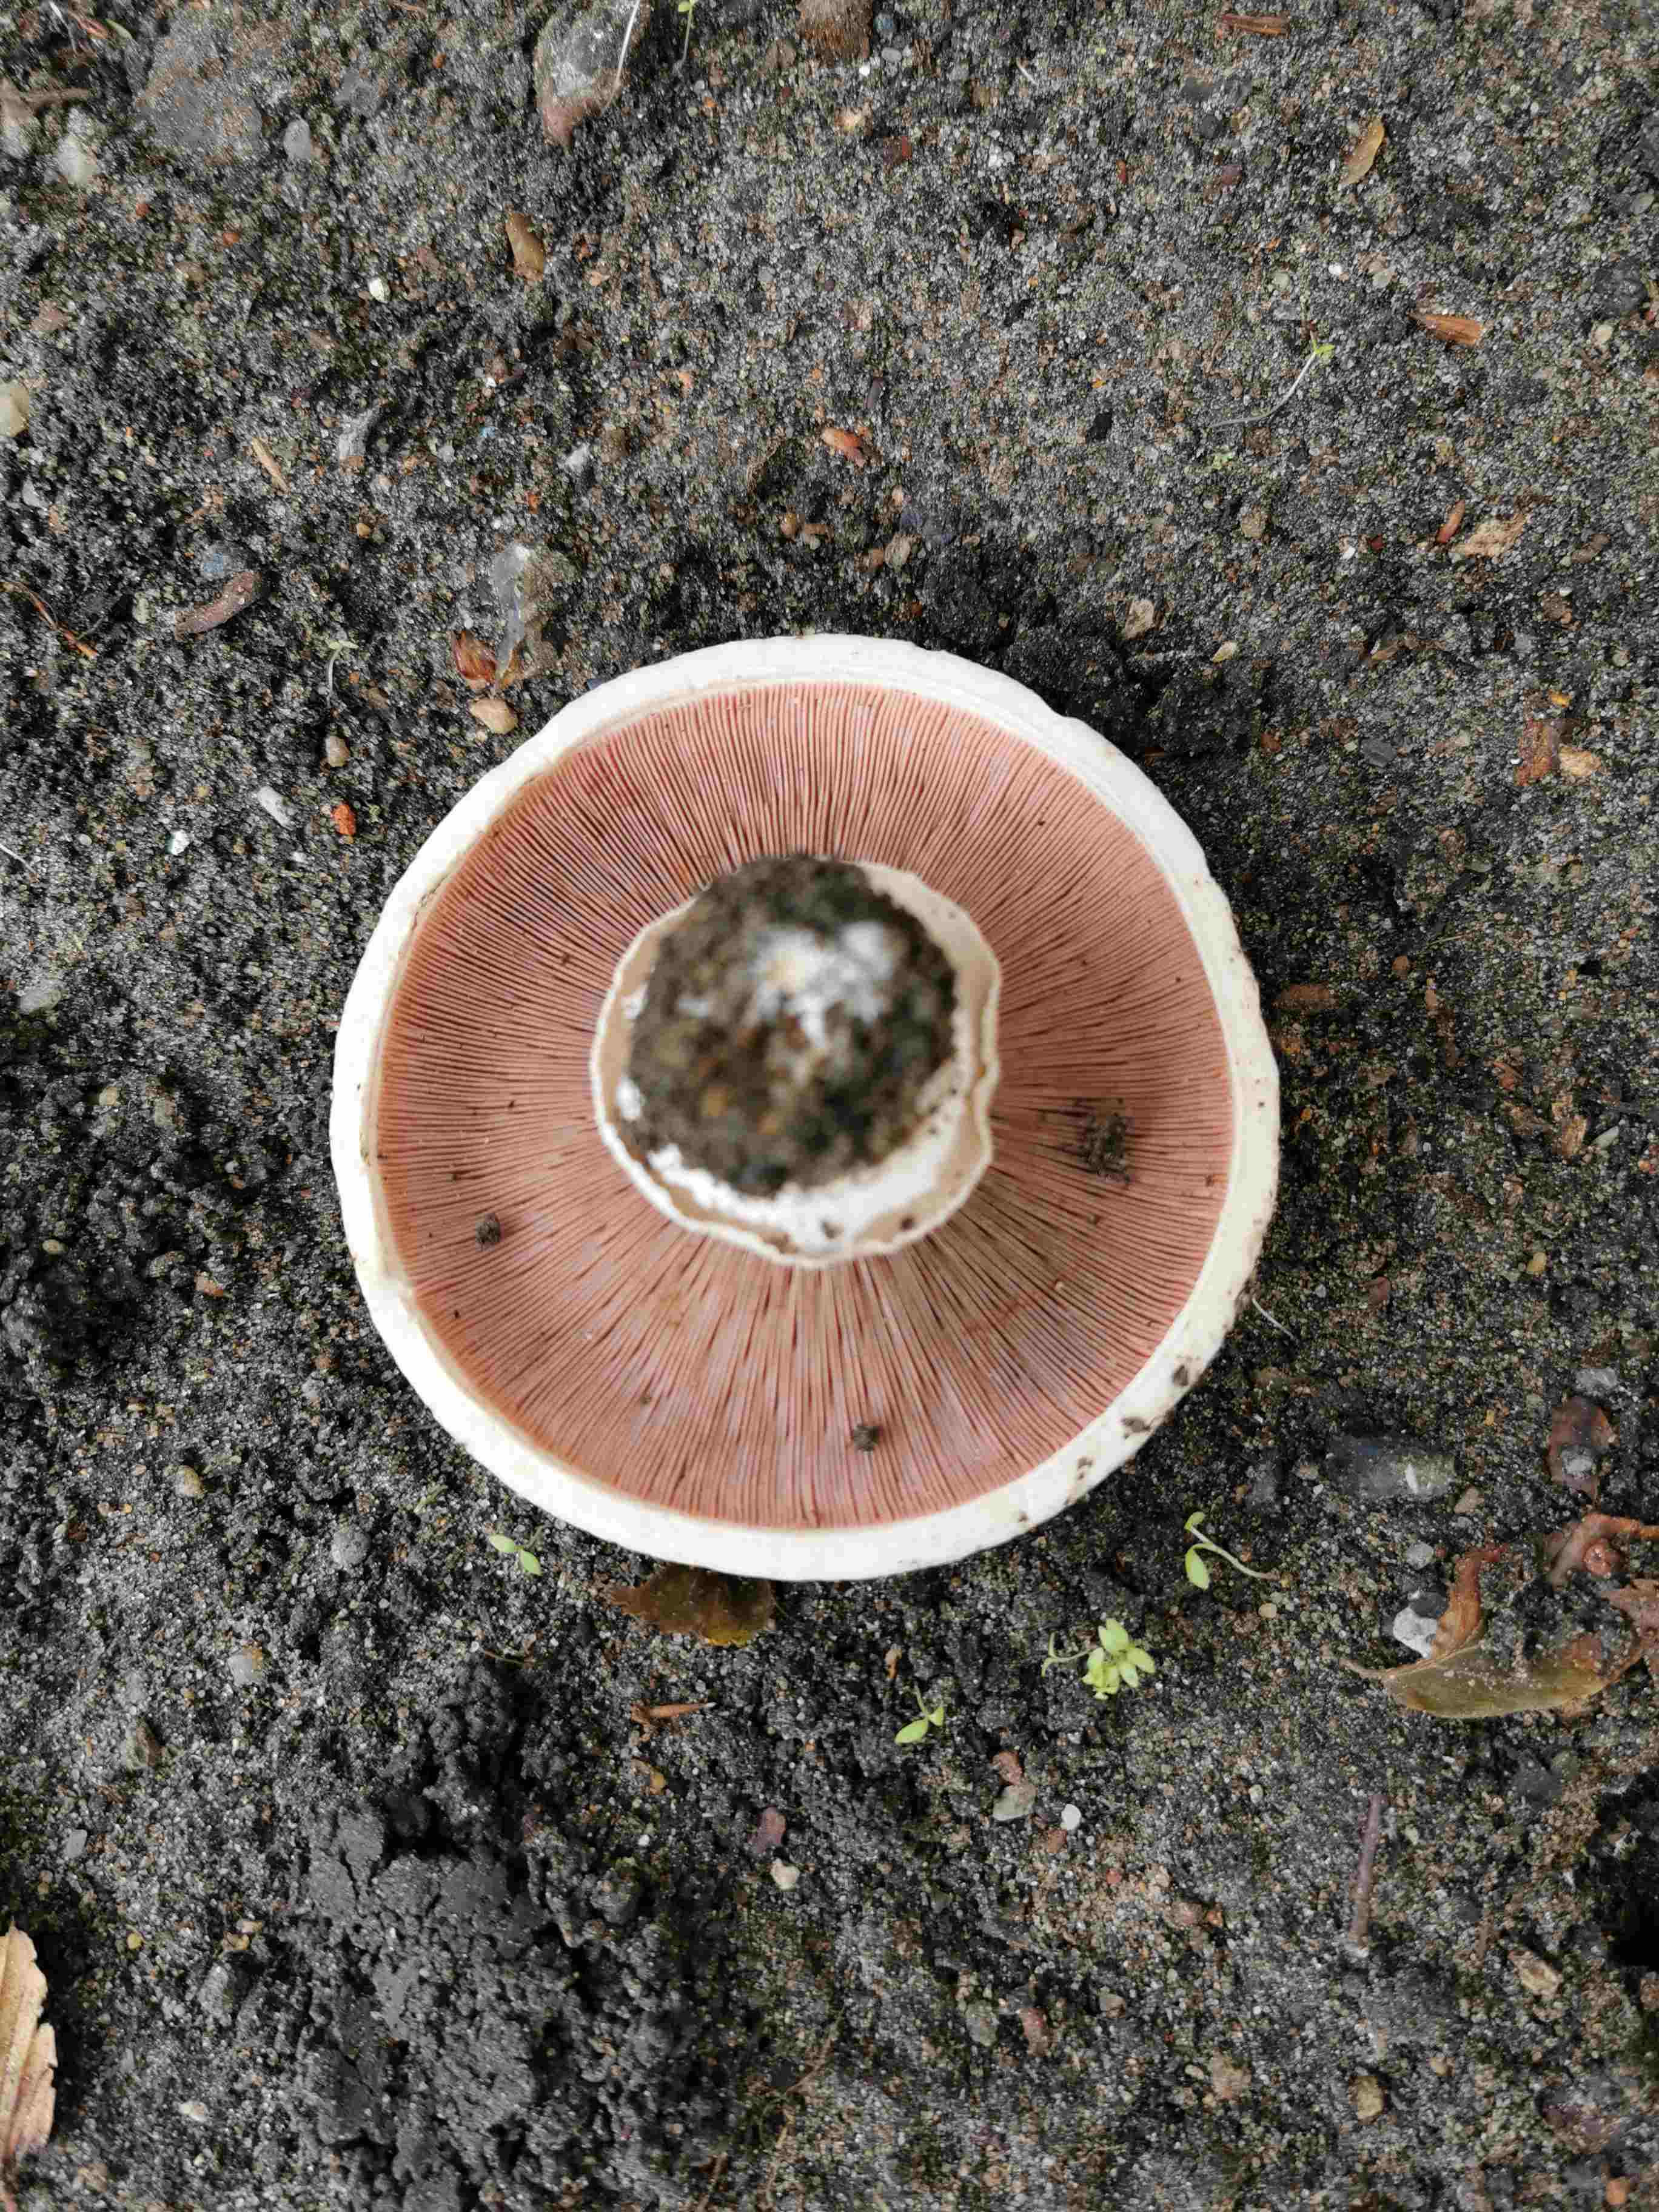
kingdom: Fungi
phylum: Basidiomycota
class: Agaricomycetes
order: Agaricales
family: Agaricaceae
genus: Agaricus
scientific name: Agaricus bitorquis
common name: vej-champignon
